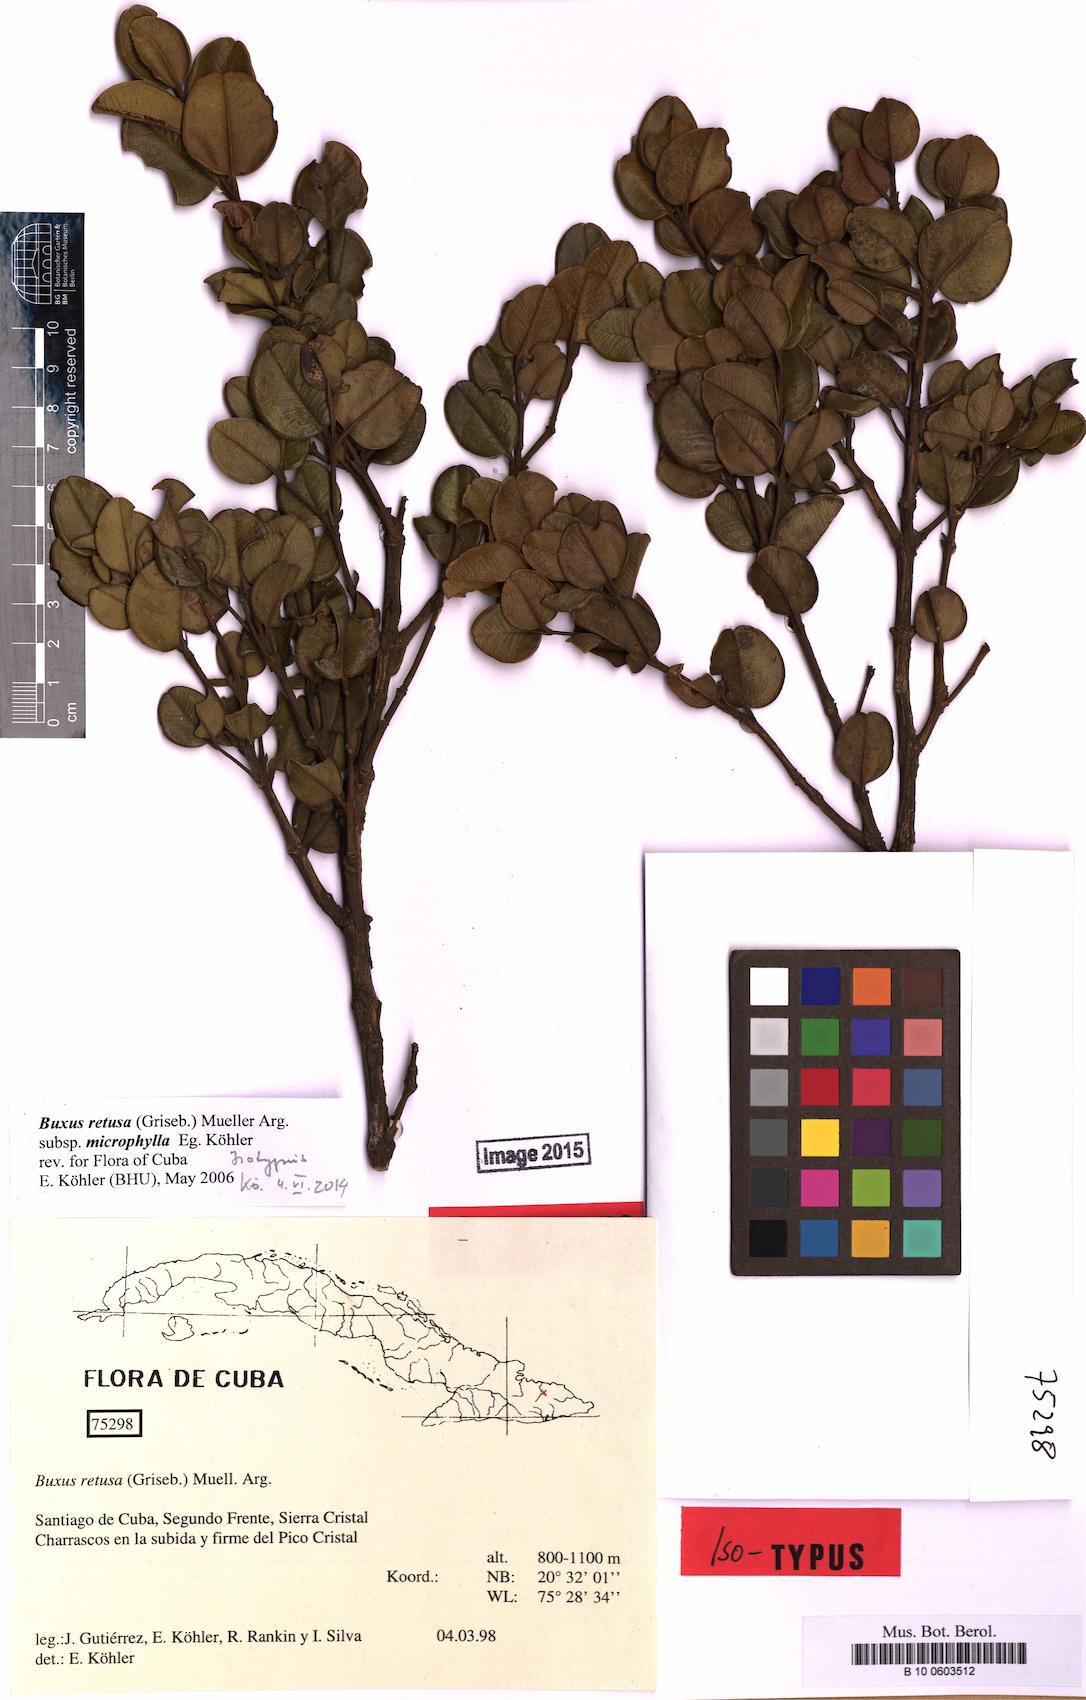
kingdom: Plantae
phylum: Tracheophyta
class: Magnoliopsida
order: Buxales
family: Buxaceae
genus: Buxus
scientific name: Buxus retusa
